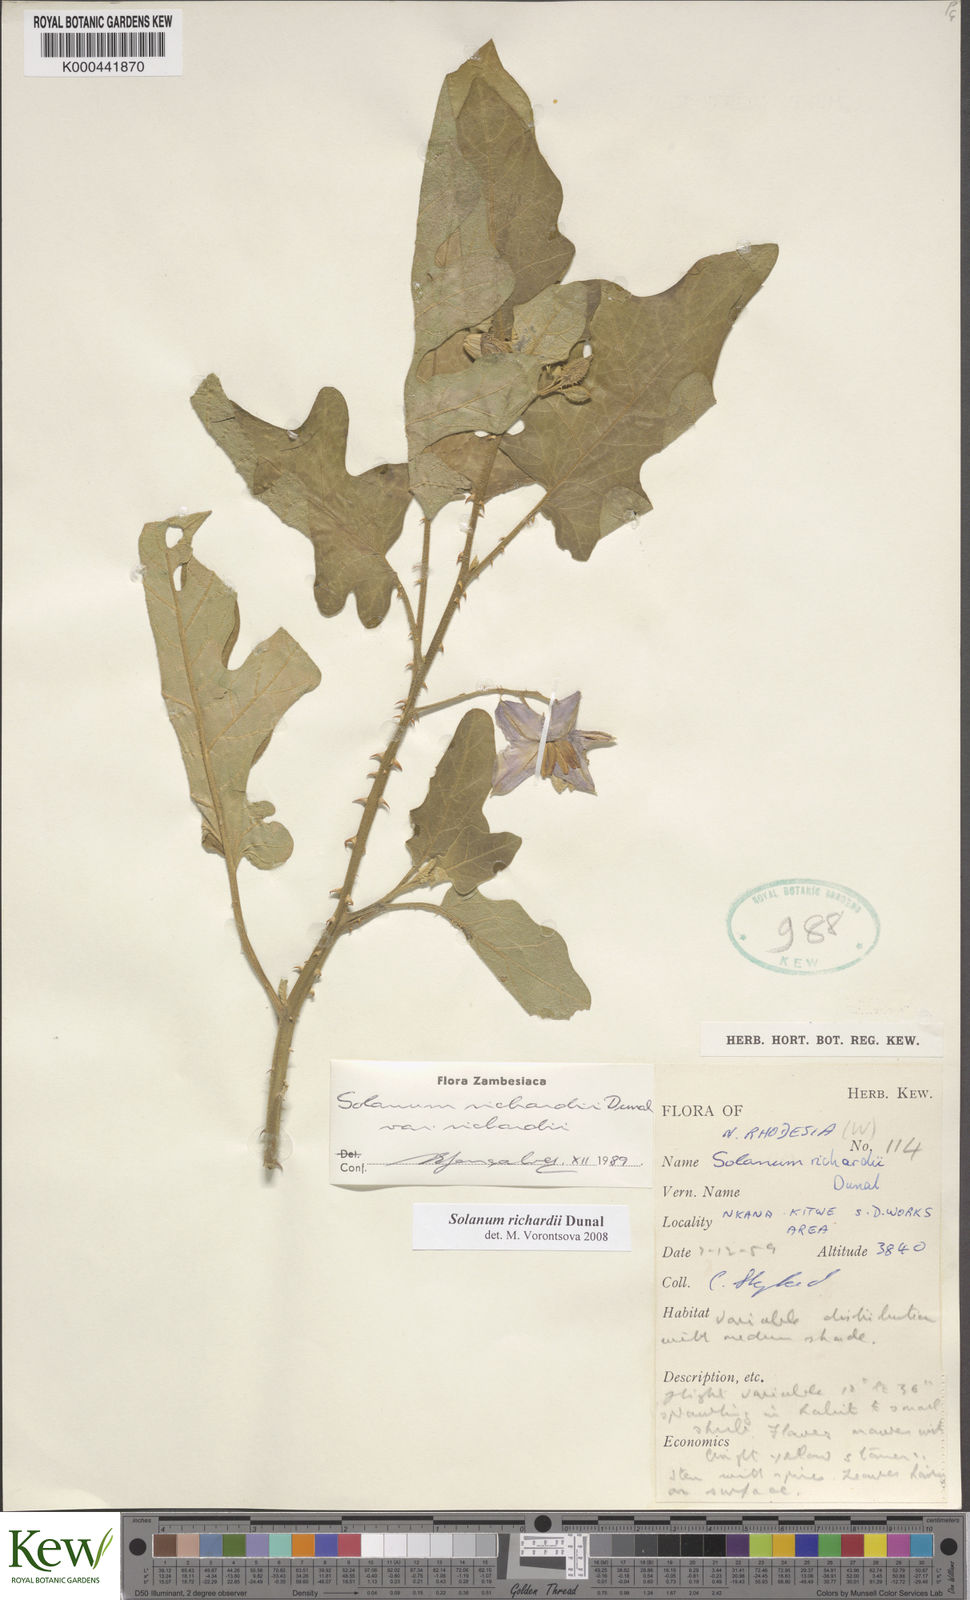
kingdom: Plantae
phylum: Tracheophyta
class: Magnoliopsida
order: Solanales
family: Solanaceae
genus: Solanum
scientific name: Solanum richardii
